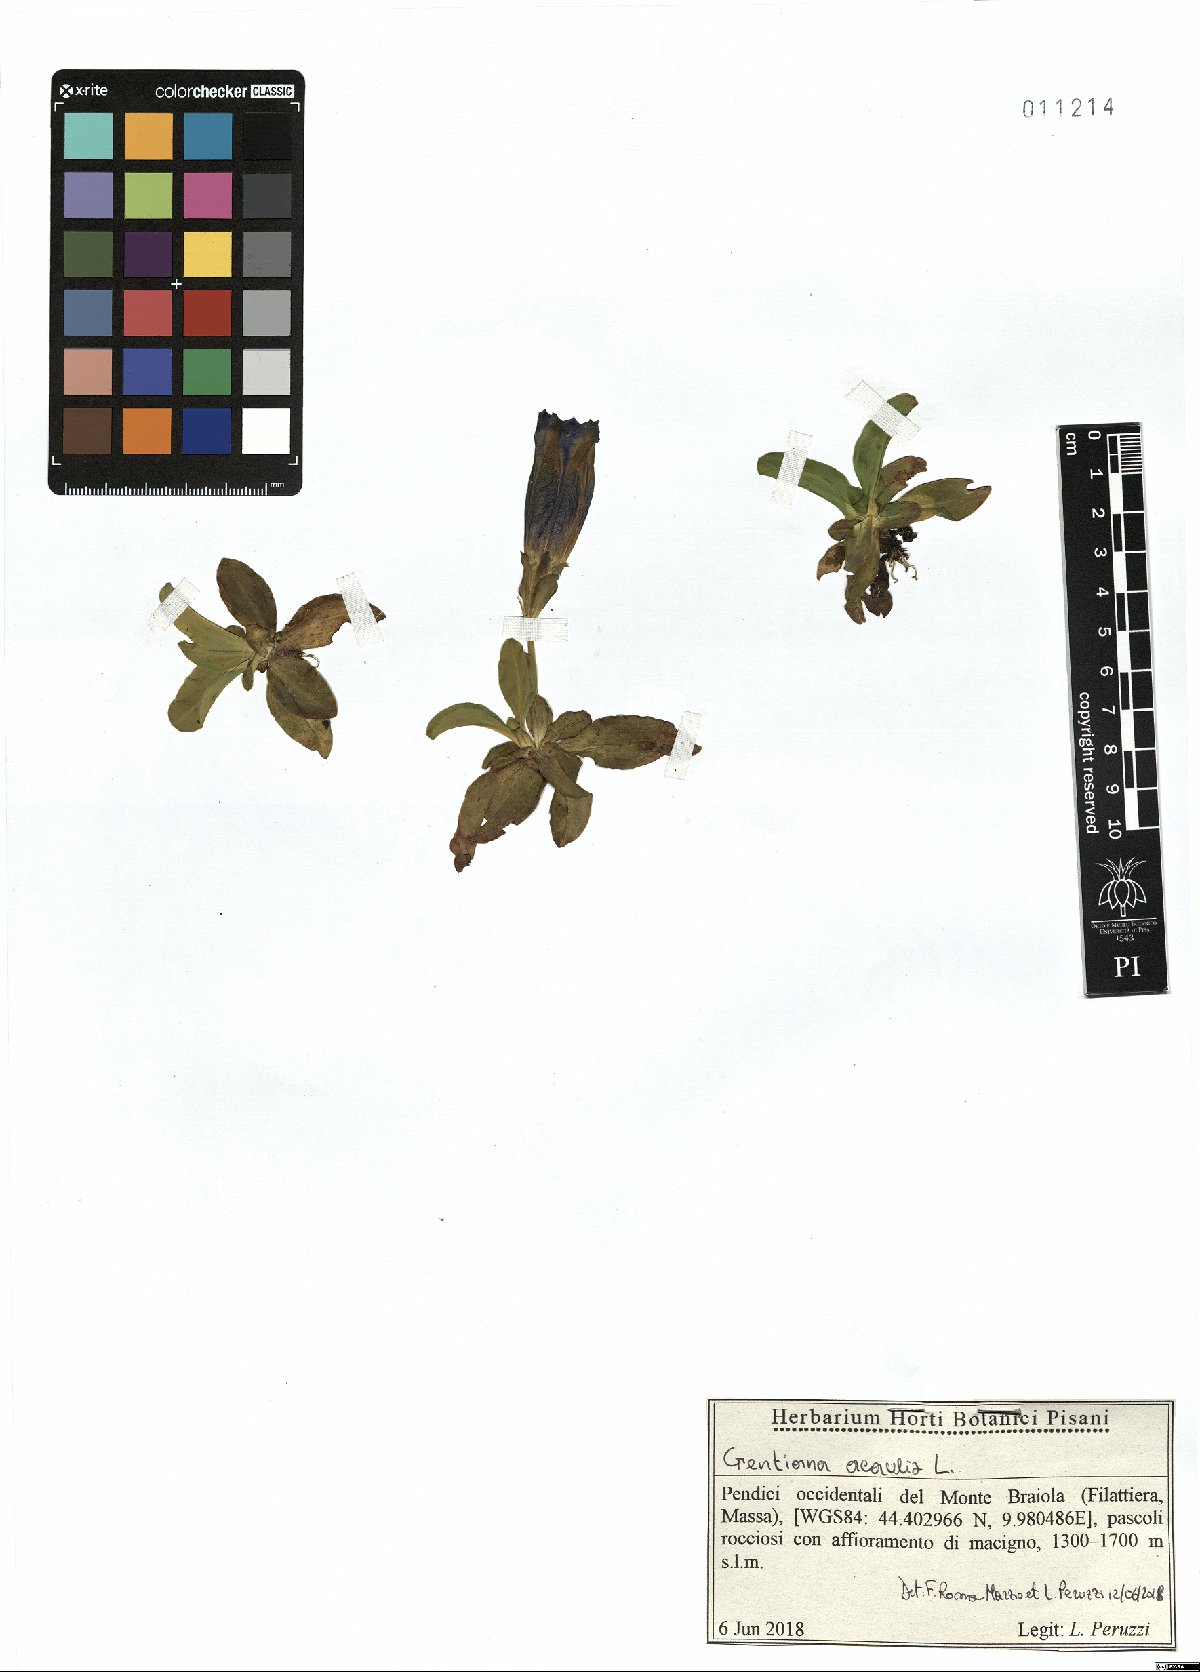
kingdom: Plantae
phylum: Tracheophyta
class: Magnoliopsida
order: Gentianales
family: Gentianaceae
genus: Gentiana
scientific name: Gentiana acaulis
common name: Trumpet gentian
